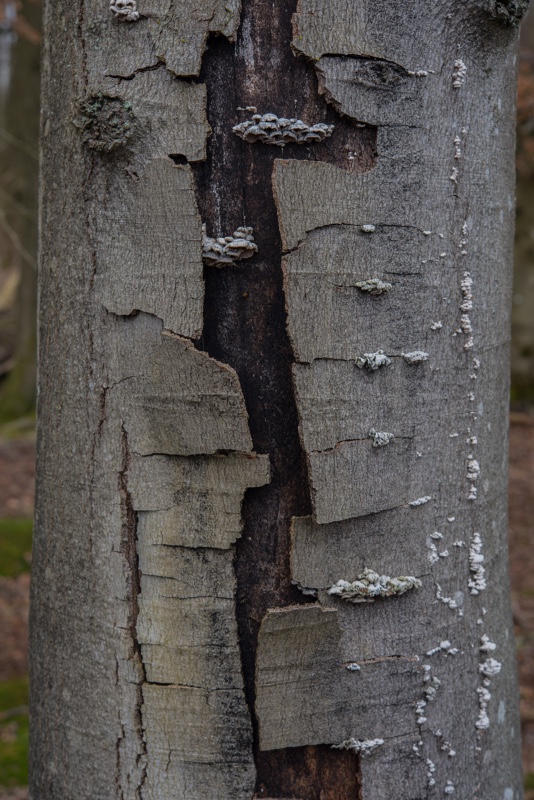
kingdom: Fungi
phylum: Basidiomycota
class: Agaricomycetes
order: Agaricales
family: Schizophyllaceae
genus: Schizophyllum
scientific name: Schizophyllum commune
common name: kløvblad
